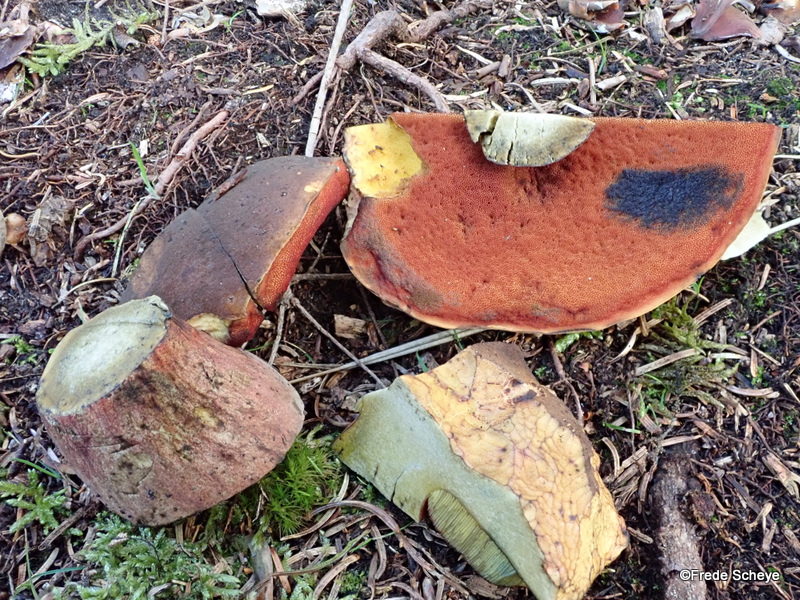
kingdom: Fungi
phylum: Basidiomycota
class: Agaricomycetes
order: Boletales
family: Boletaceae
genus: Neoboletus
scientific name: Neoboletus erythropus
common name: punktstokket indigorørhat
